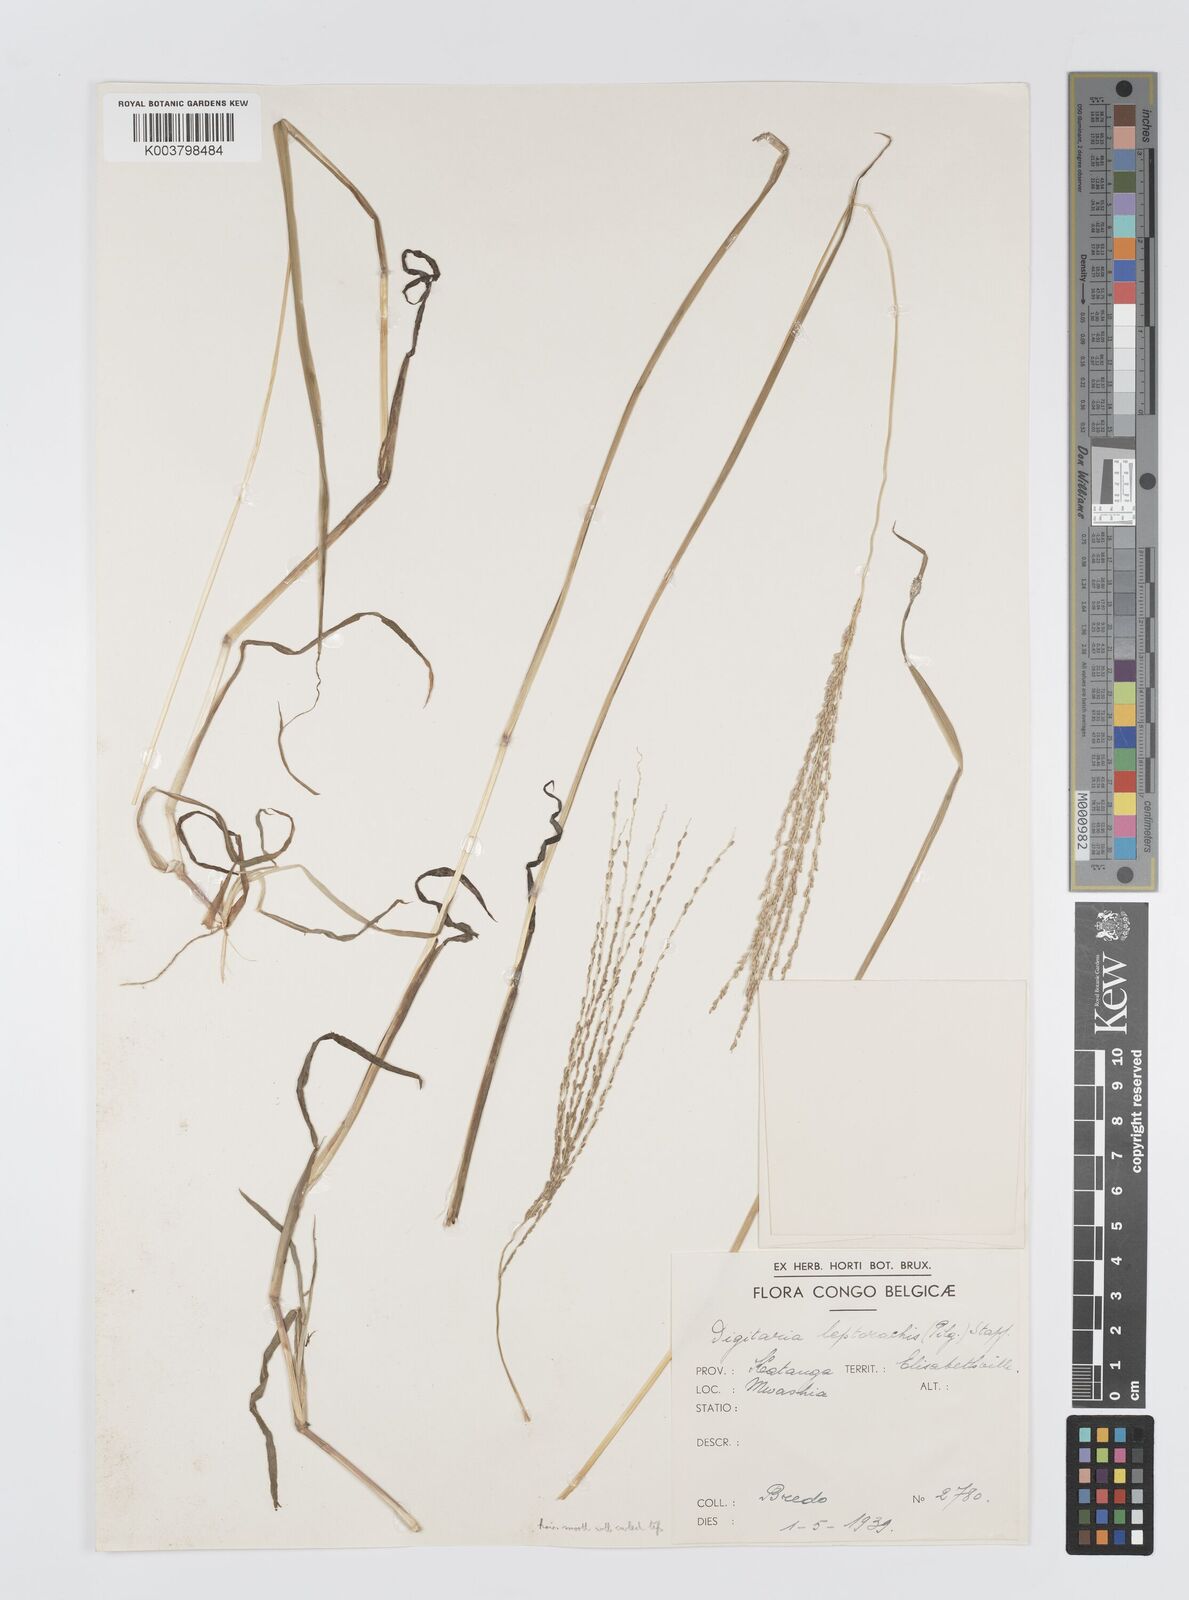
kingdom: Plantae
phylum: Tracheophyta
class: Liliopsida
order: Poales
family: Poaceae
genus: Digitaria
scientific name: Digitaria leptorhachis
